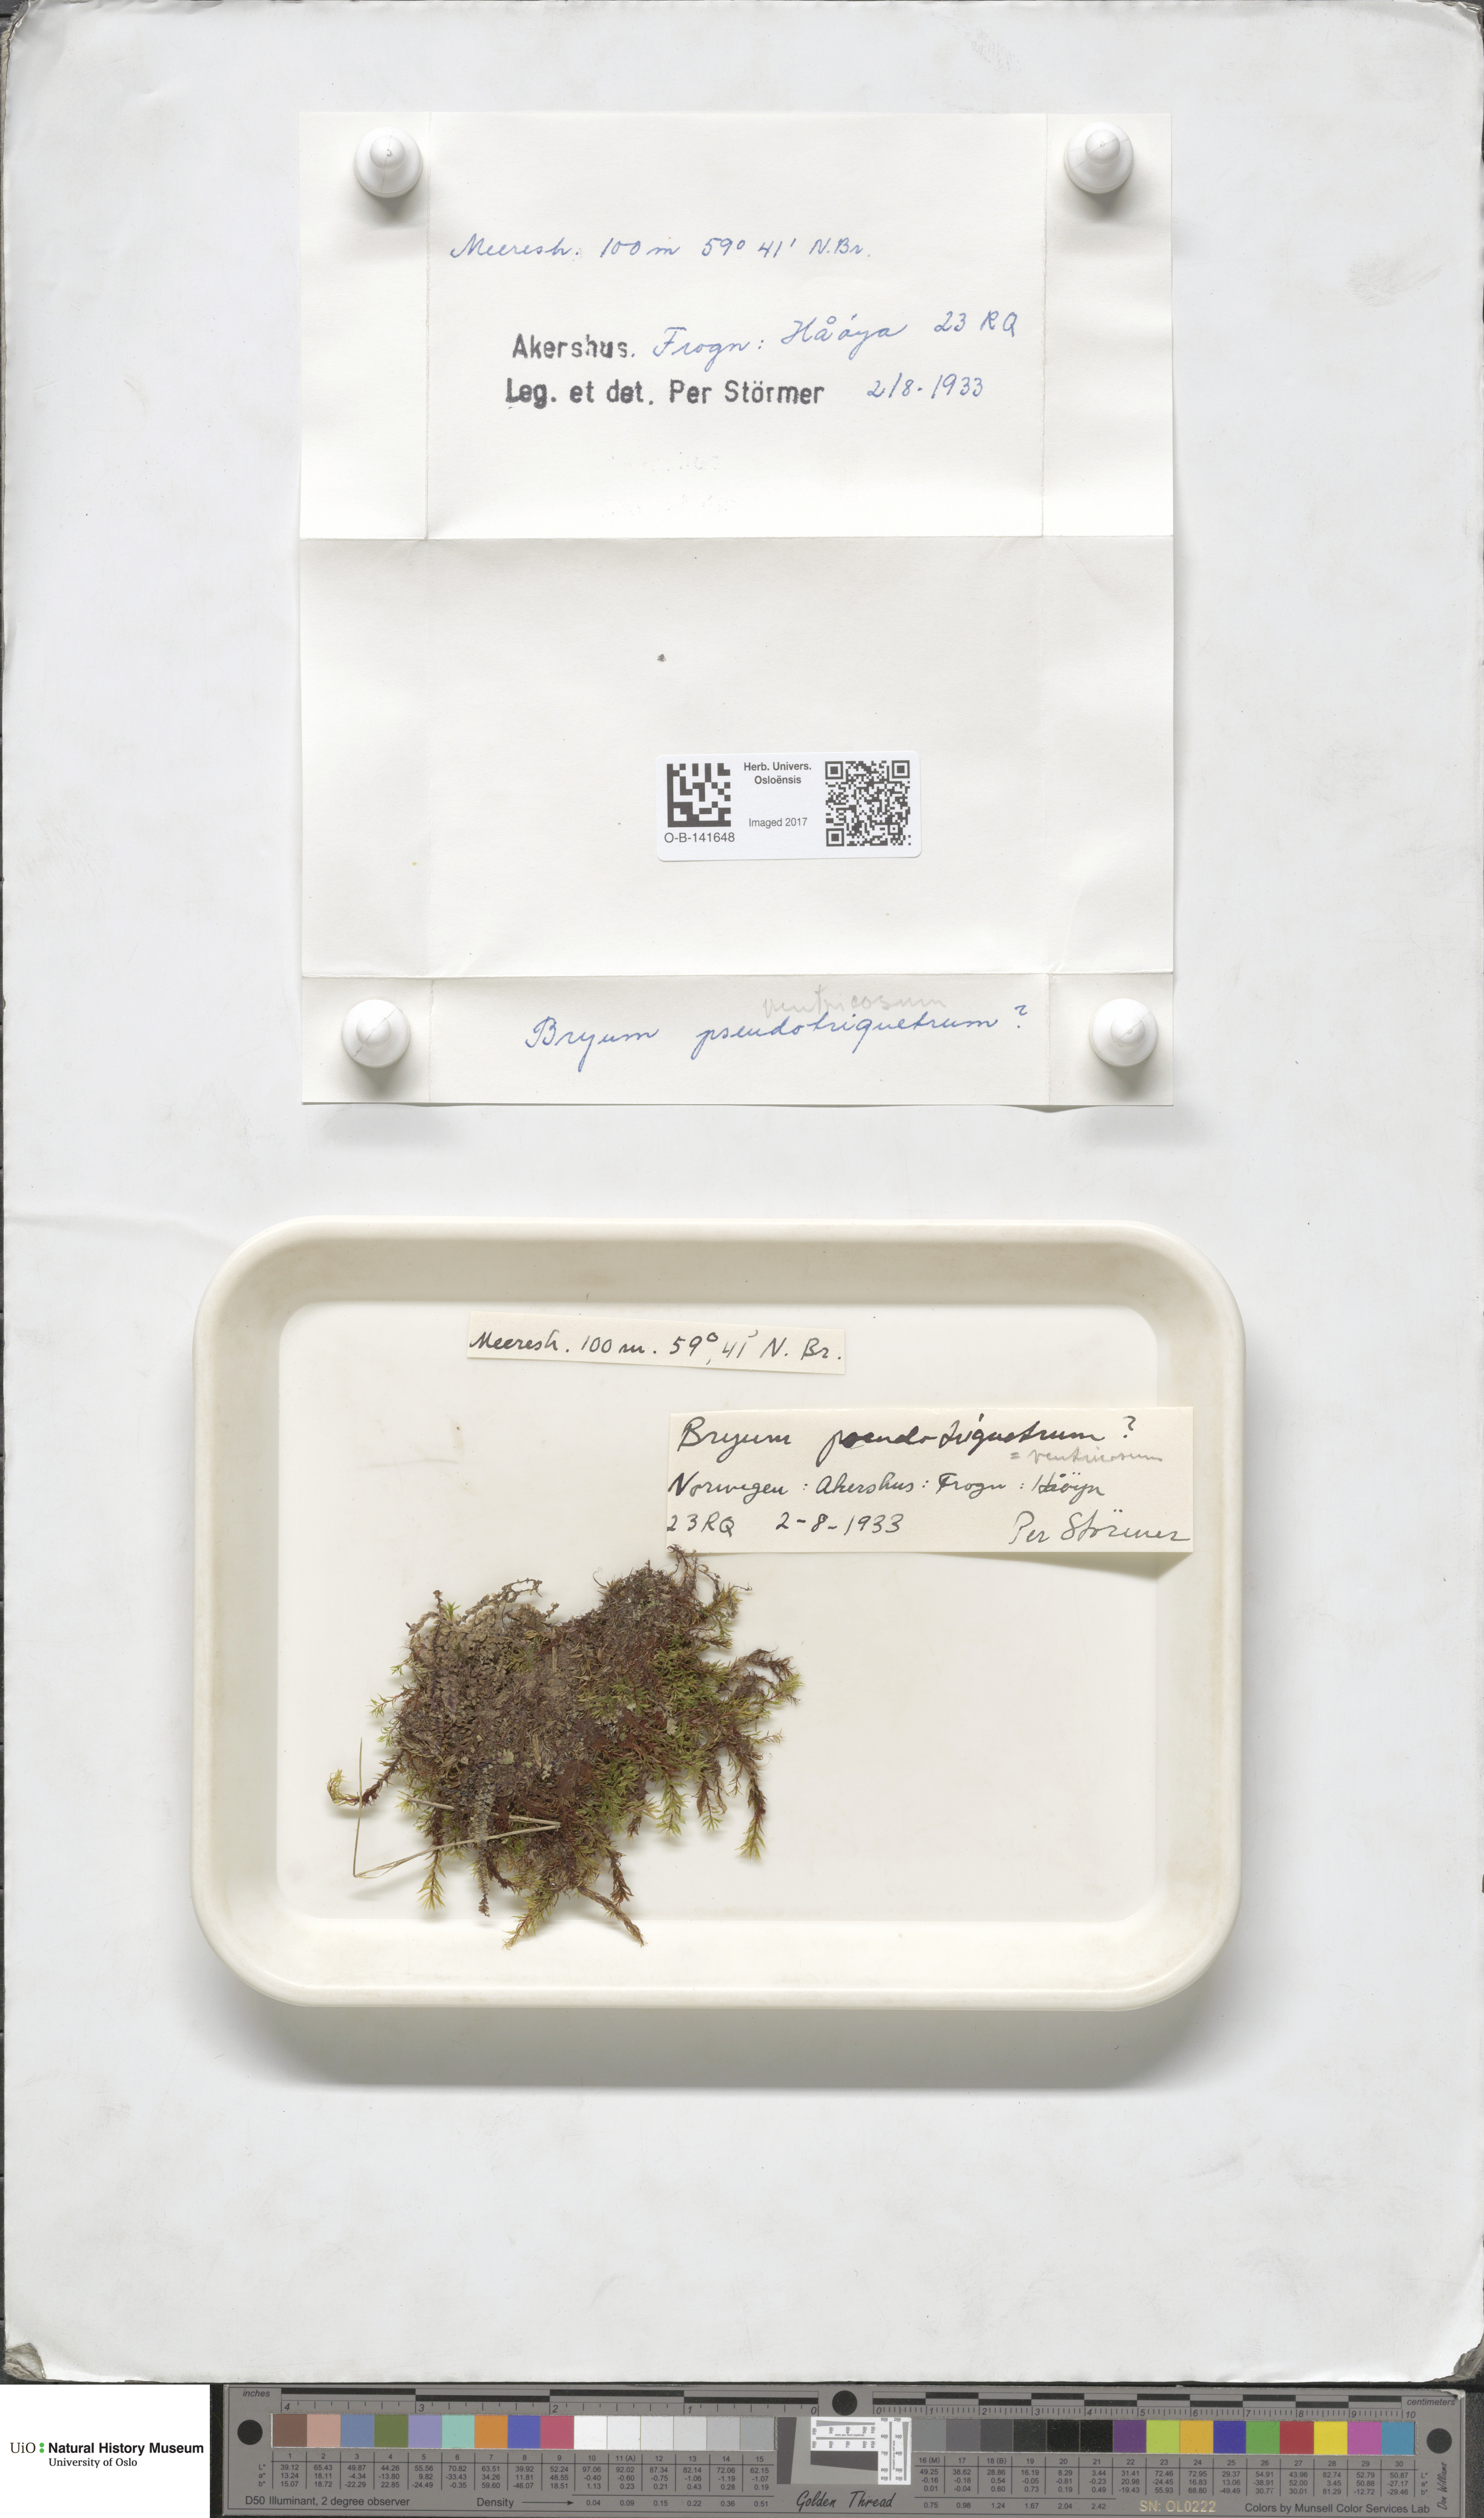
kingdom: Plantae
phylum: Bryophyta
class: Bryopsida
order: Bryales
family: Bryaceae
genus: Ptychostomum
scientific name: Ptychostomum pseudotriquetrum
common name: Long-leaved thread moss
